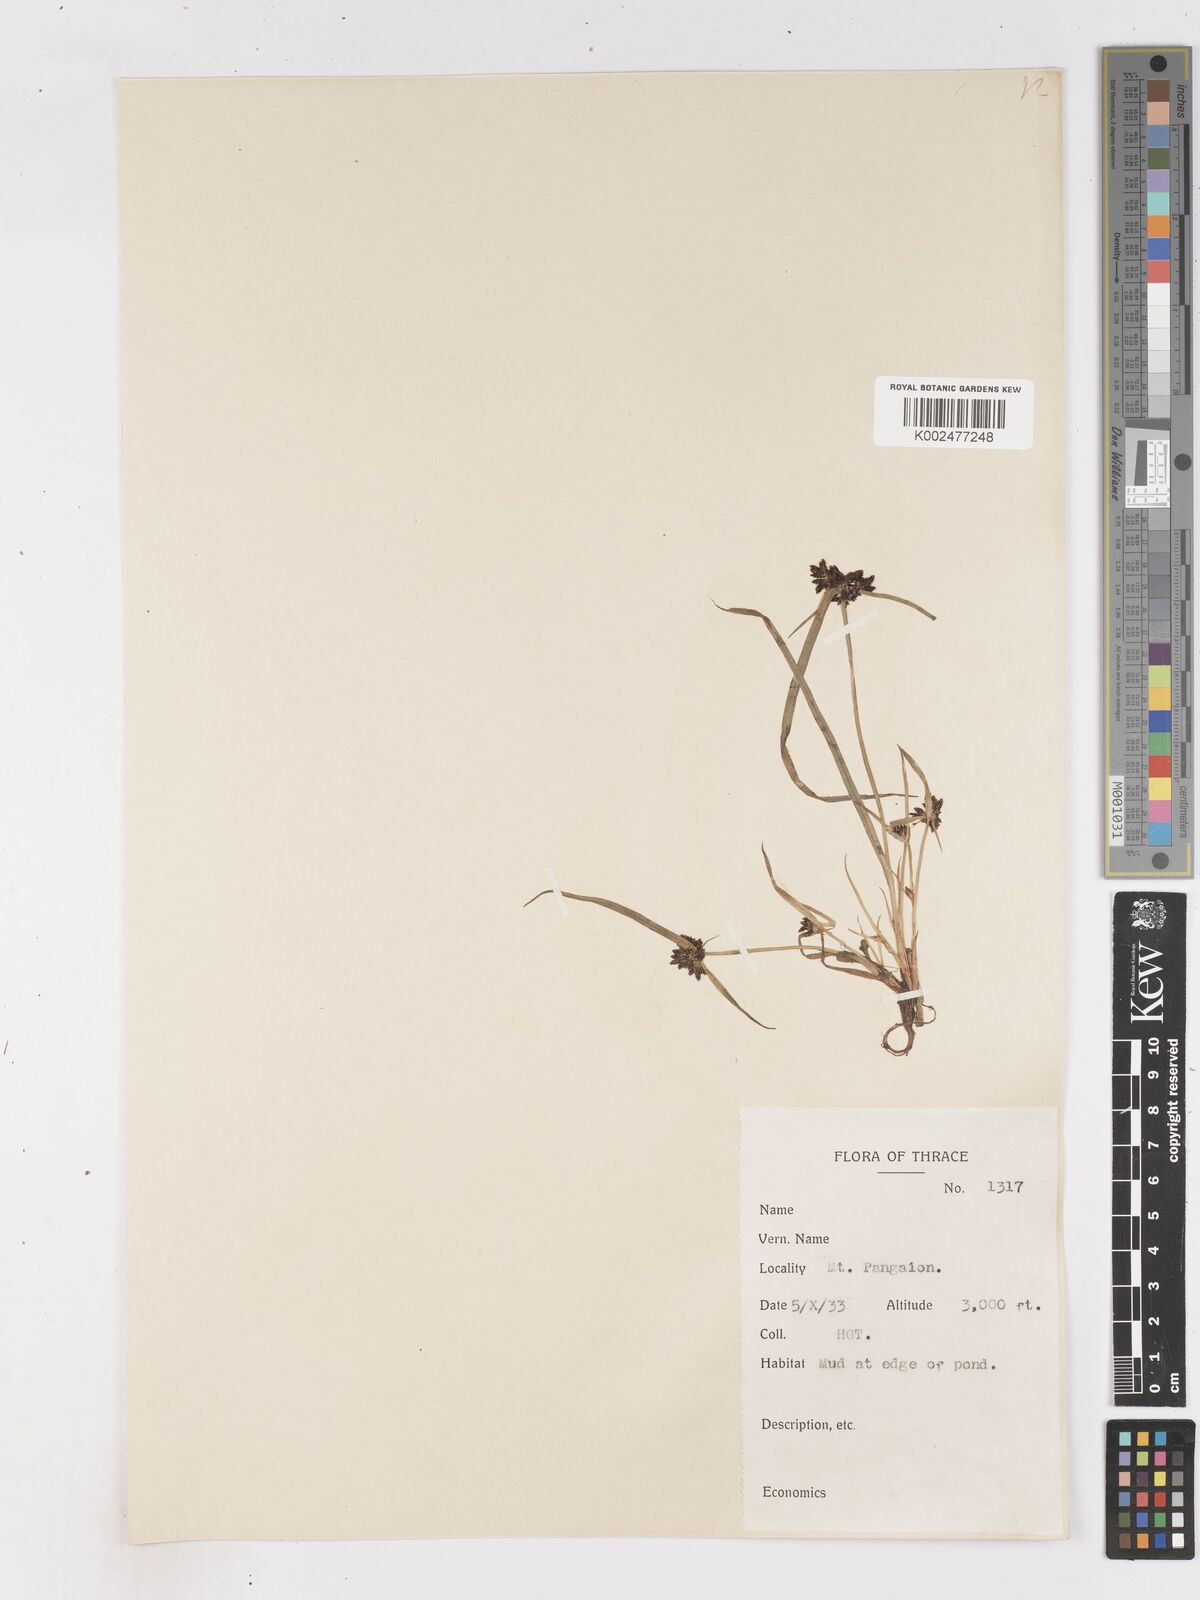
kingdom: Plantae
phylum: Tracheophyta
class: Liliopsida
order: Poales
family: Cyperaceae
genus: Cyperus
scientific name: Cyperus fuscus
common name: Brown galingale
